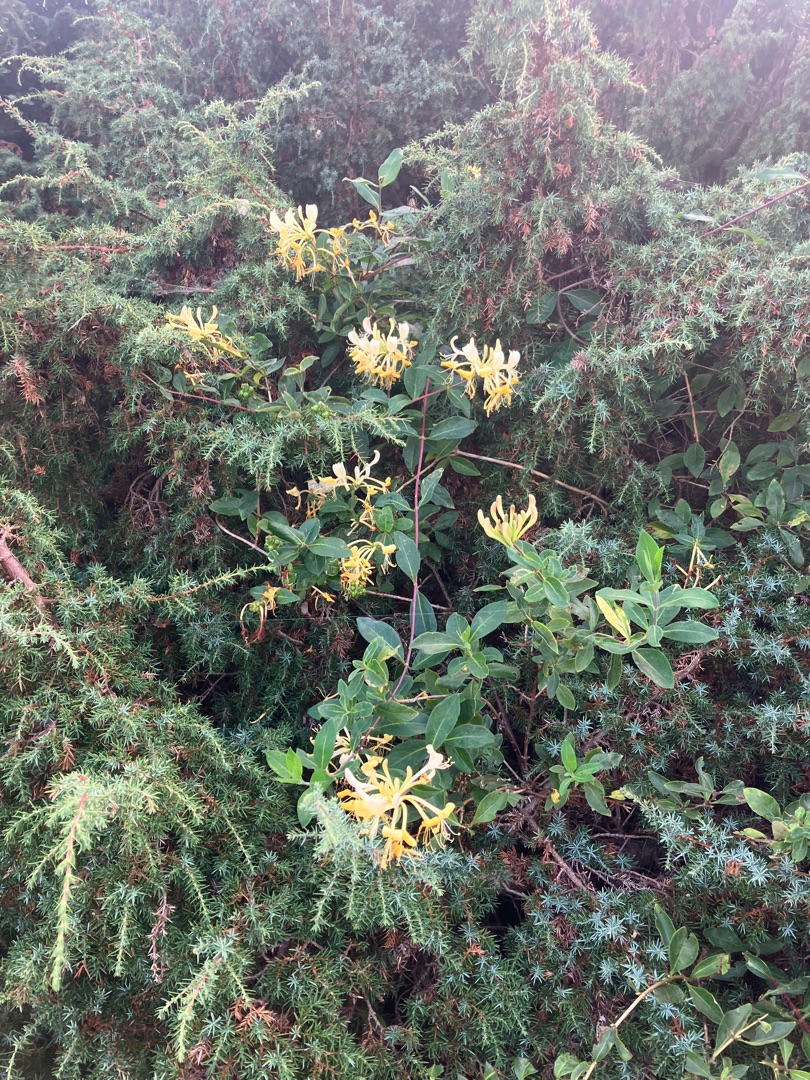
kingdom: Plantae
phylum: Tracheophyta
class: Magnoliopsida
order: Dipsacales
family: Caprifoliaceae
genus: Lonicera
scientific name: Lonicera periclymenum
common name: Almindelig gedeblad
